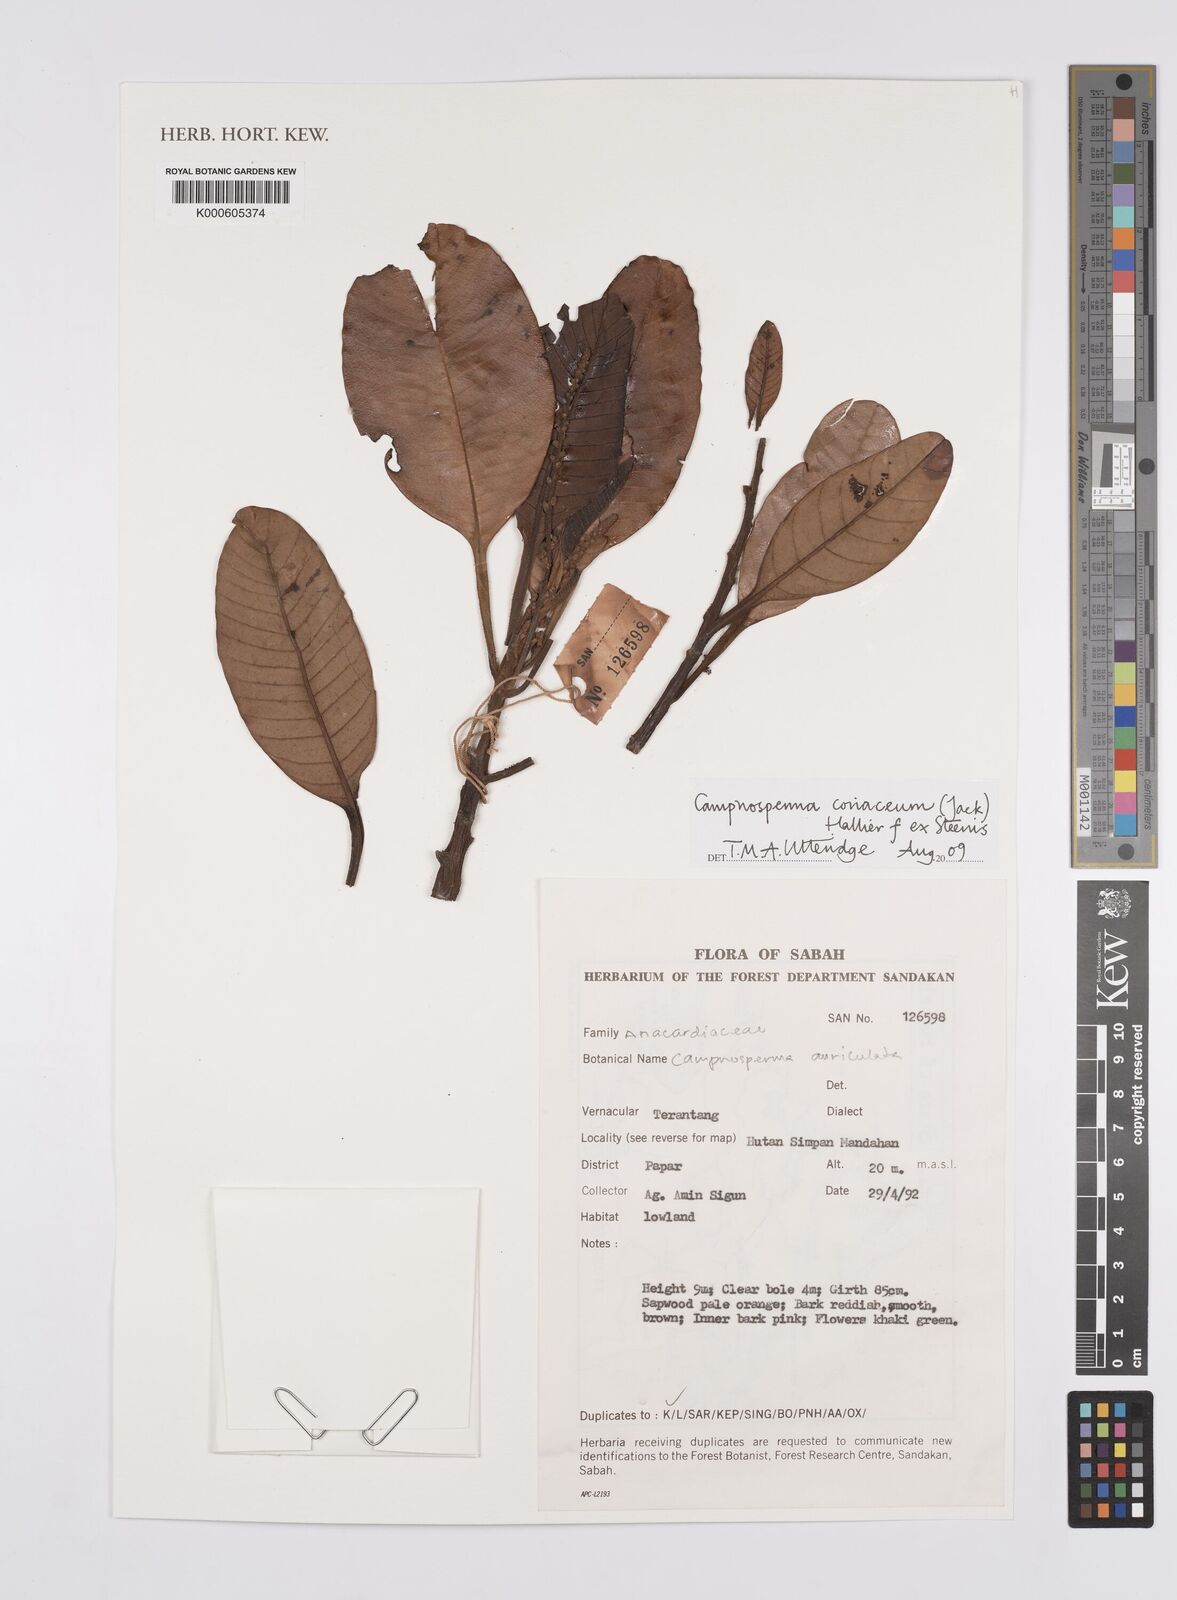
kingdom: Plantae
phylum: Tracheophyta
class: Magnoliopsida
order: Sapindales
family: Anacardiaceae
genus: Campnosperma
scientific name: Campnosperma
